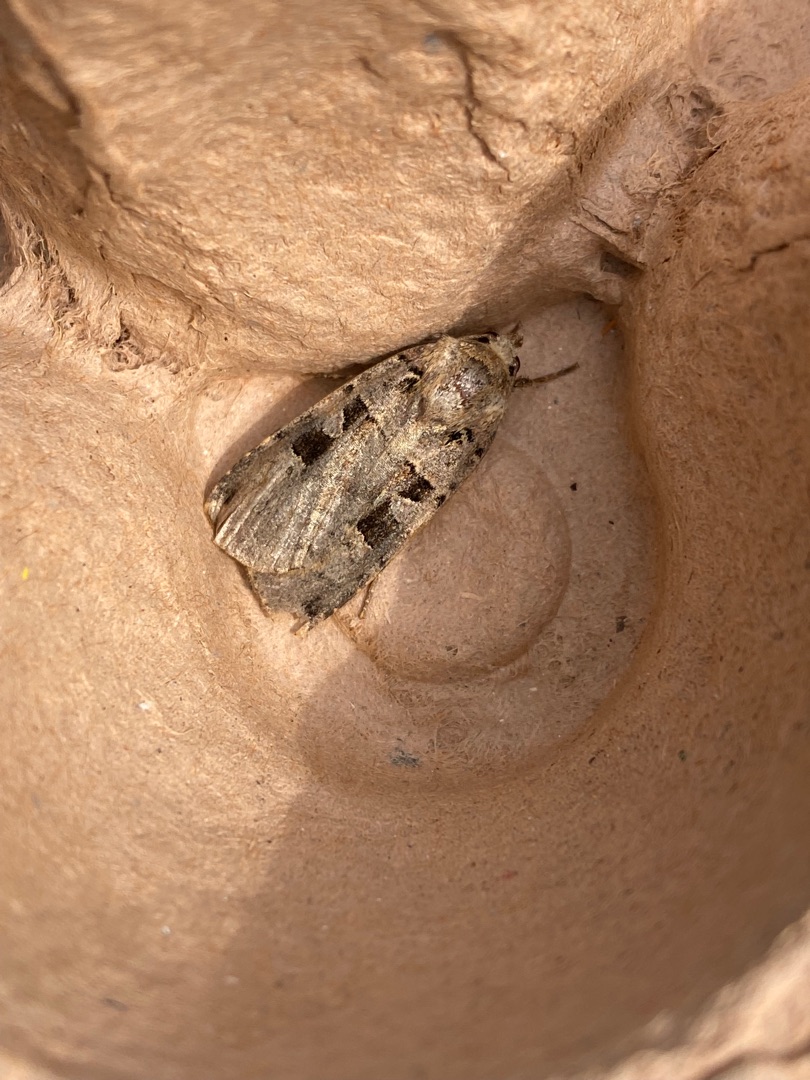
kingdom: Animalia
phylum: Arthropoda
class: Insecta
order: Lepidoptera
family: Noctuidae
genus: Xestia
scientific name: Xestia triangulum
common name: Sortplettet skovugle
